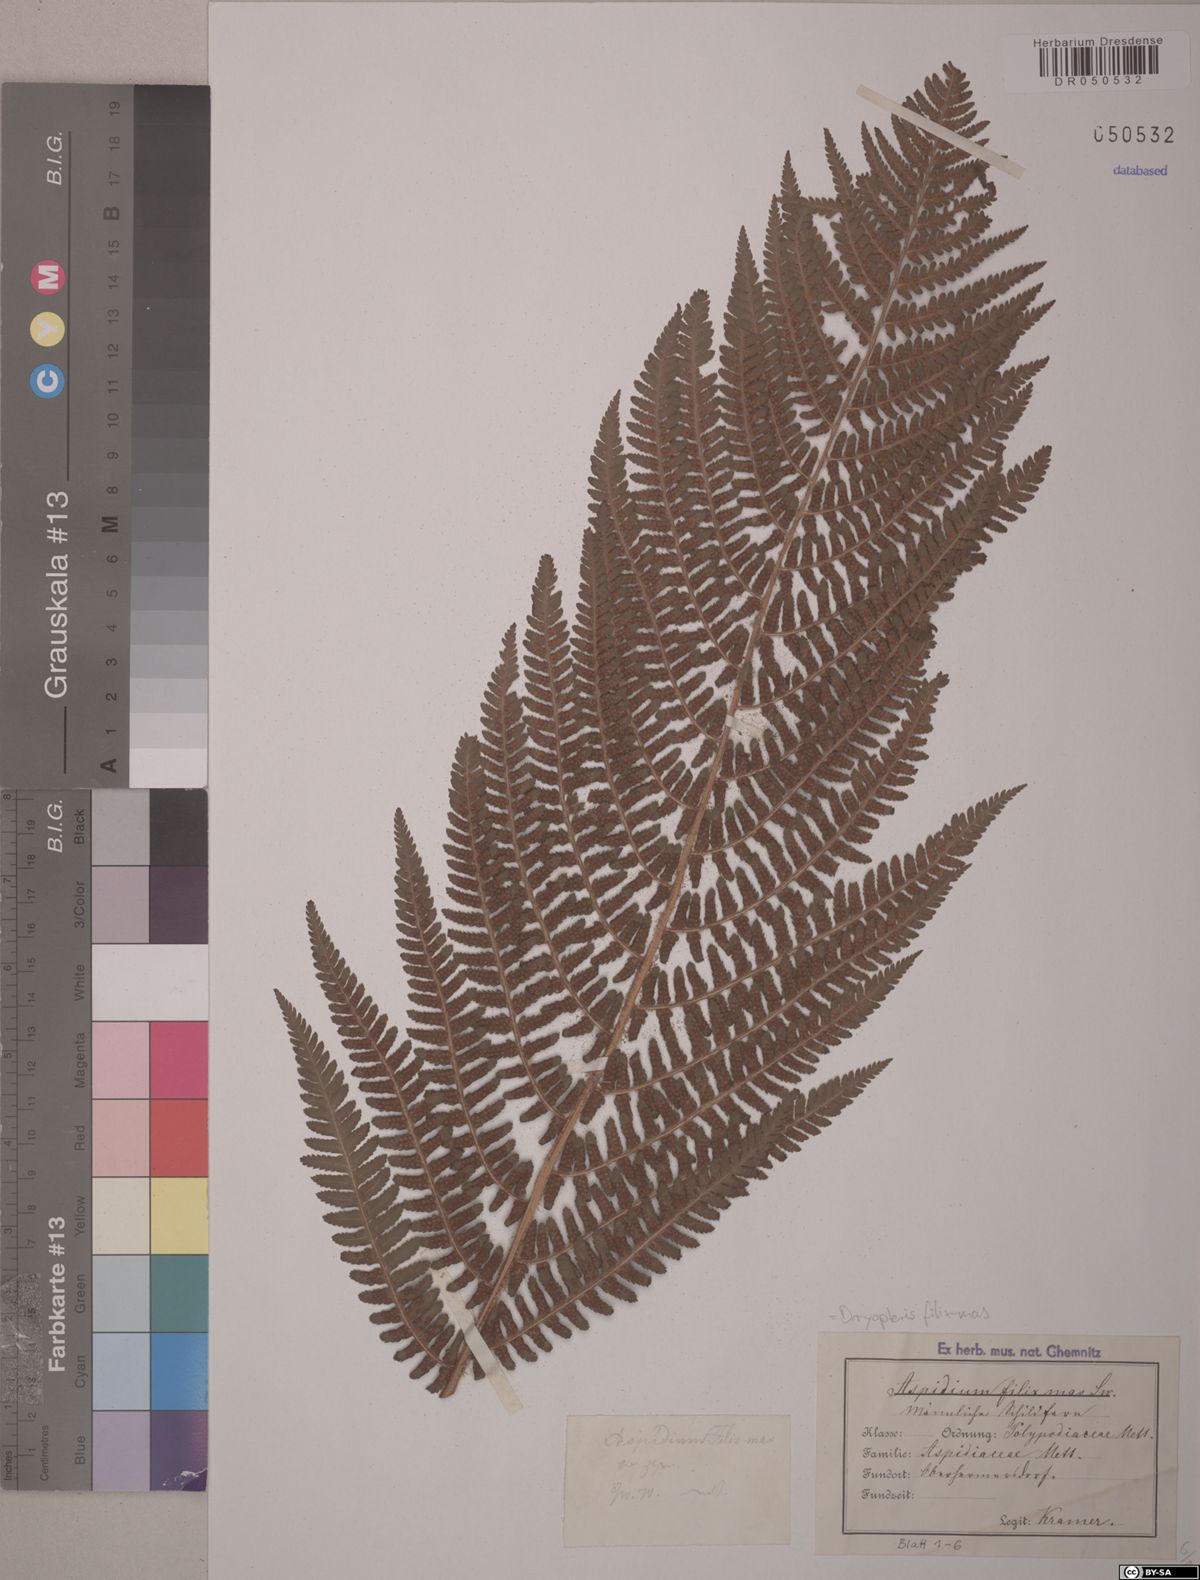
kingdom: Plantae
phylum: Tracheophyta
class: Polypodiopsida
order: Polypodiales
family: Dryopteridaceae
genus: Dryopteris
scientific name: Dryopteris filix-mas
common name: Male fern
